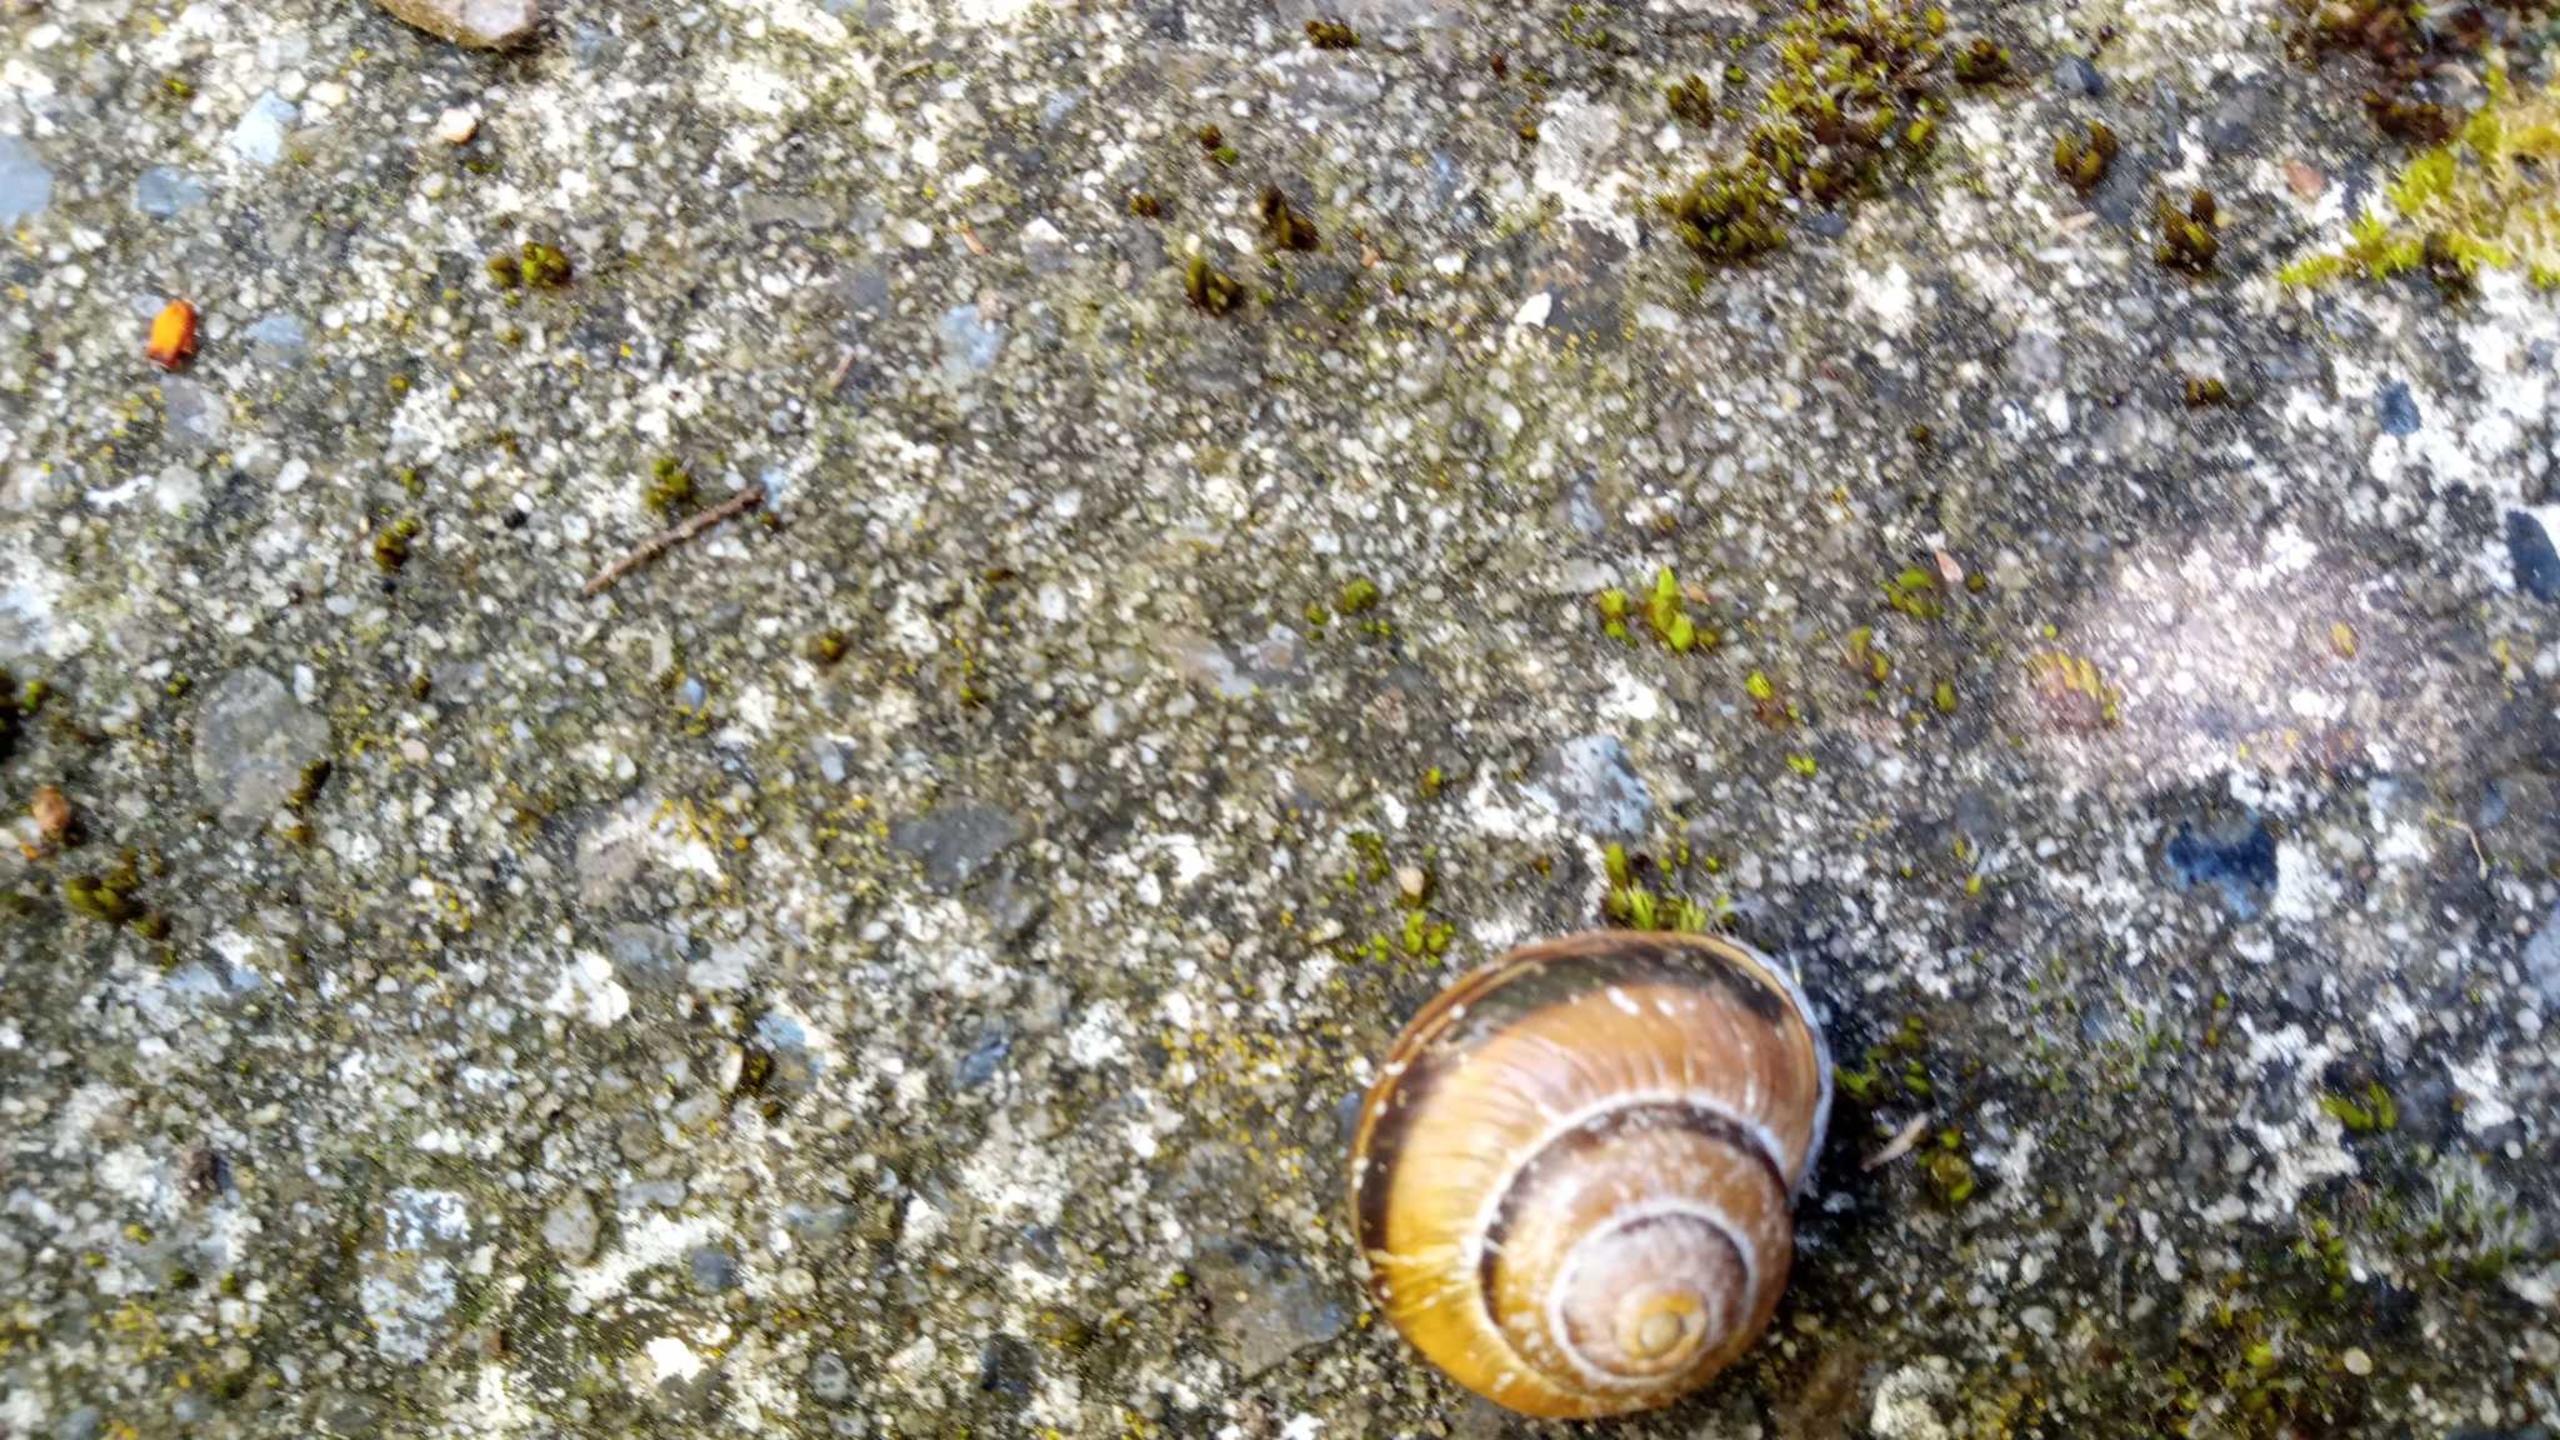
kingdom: Animalia
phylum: Mollusca
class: Gastropoda
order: Stylommatophora
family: Helicidae
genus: Cepaea
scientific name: Cepaea nemoralis
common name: Lundsnegl
